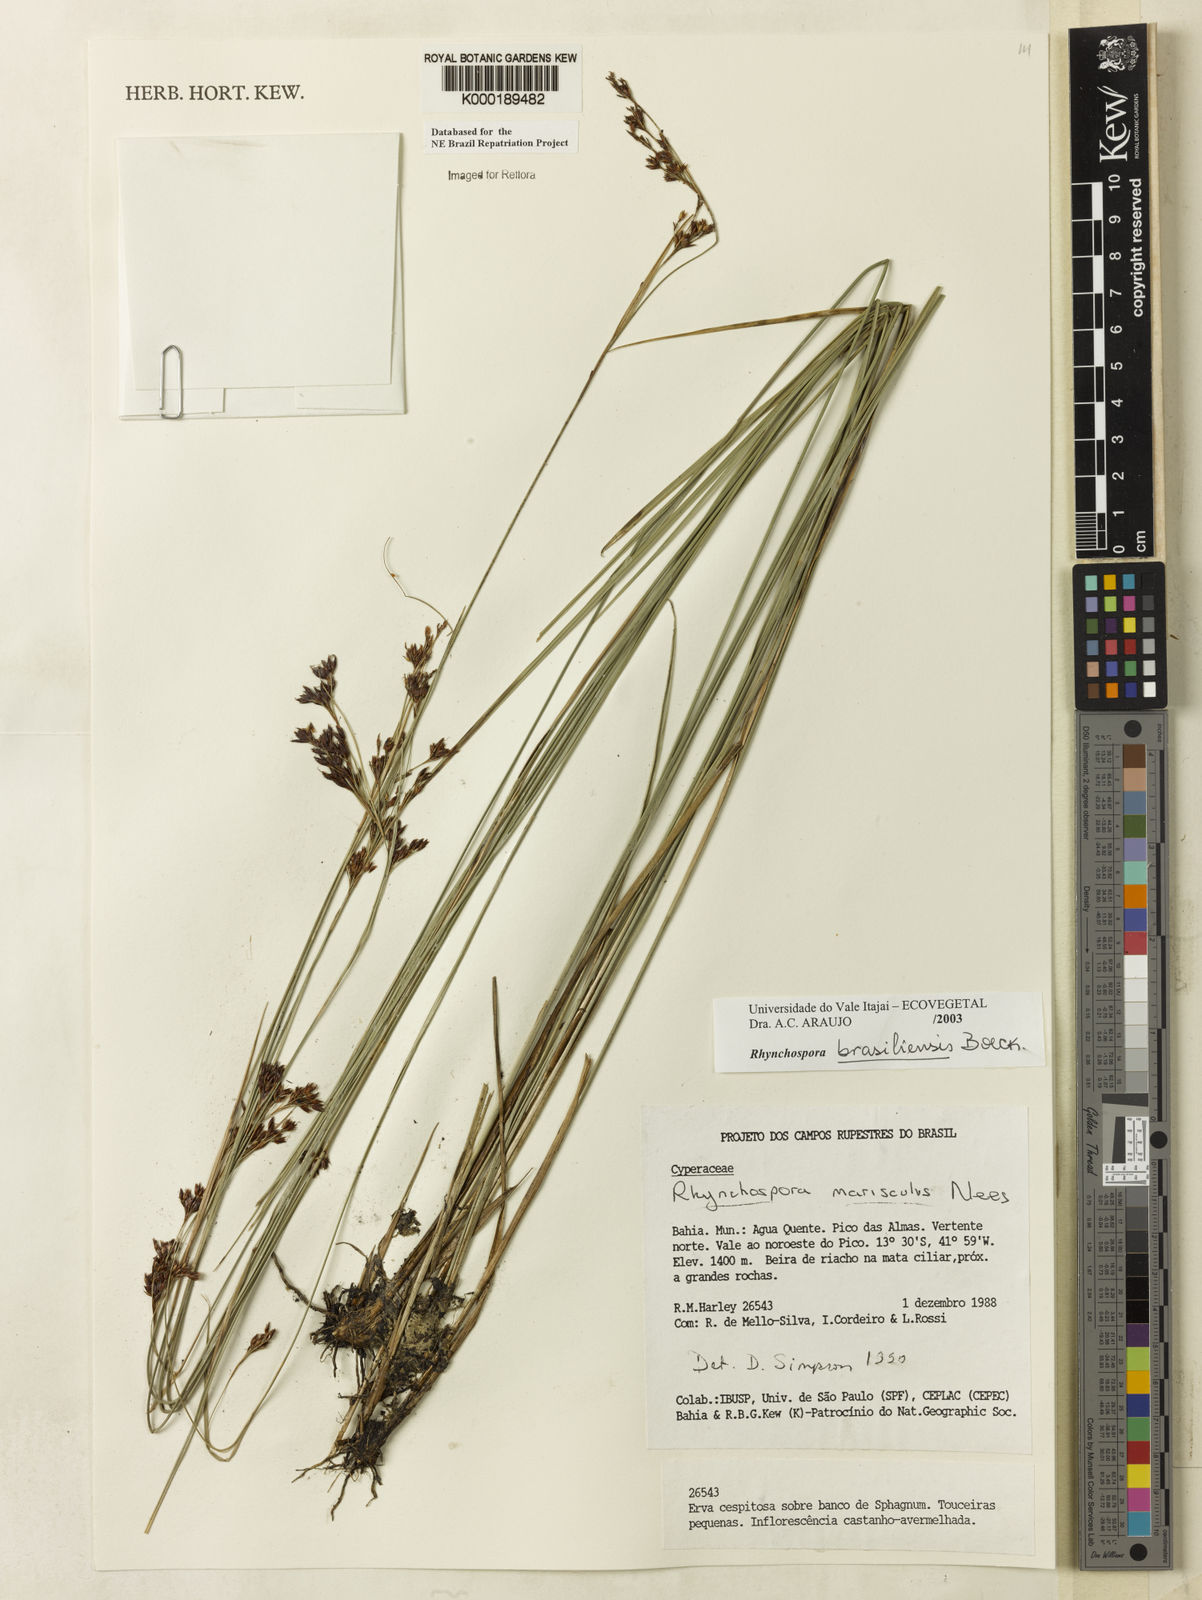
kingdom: Plantae
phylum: Tracheophyta
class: Liliopsida
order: Poales
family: Cyperaceae
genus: Rhynchospora
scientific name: Rhynchospora brasiliensis
